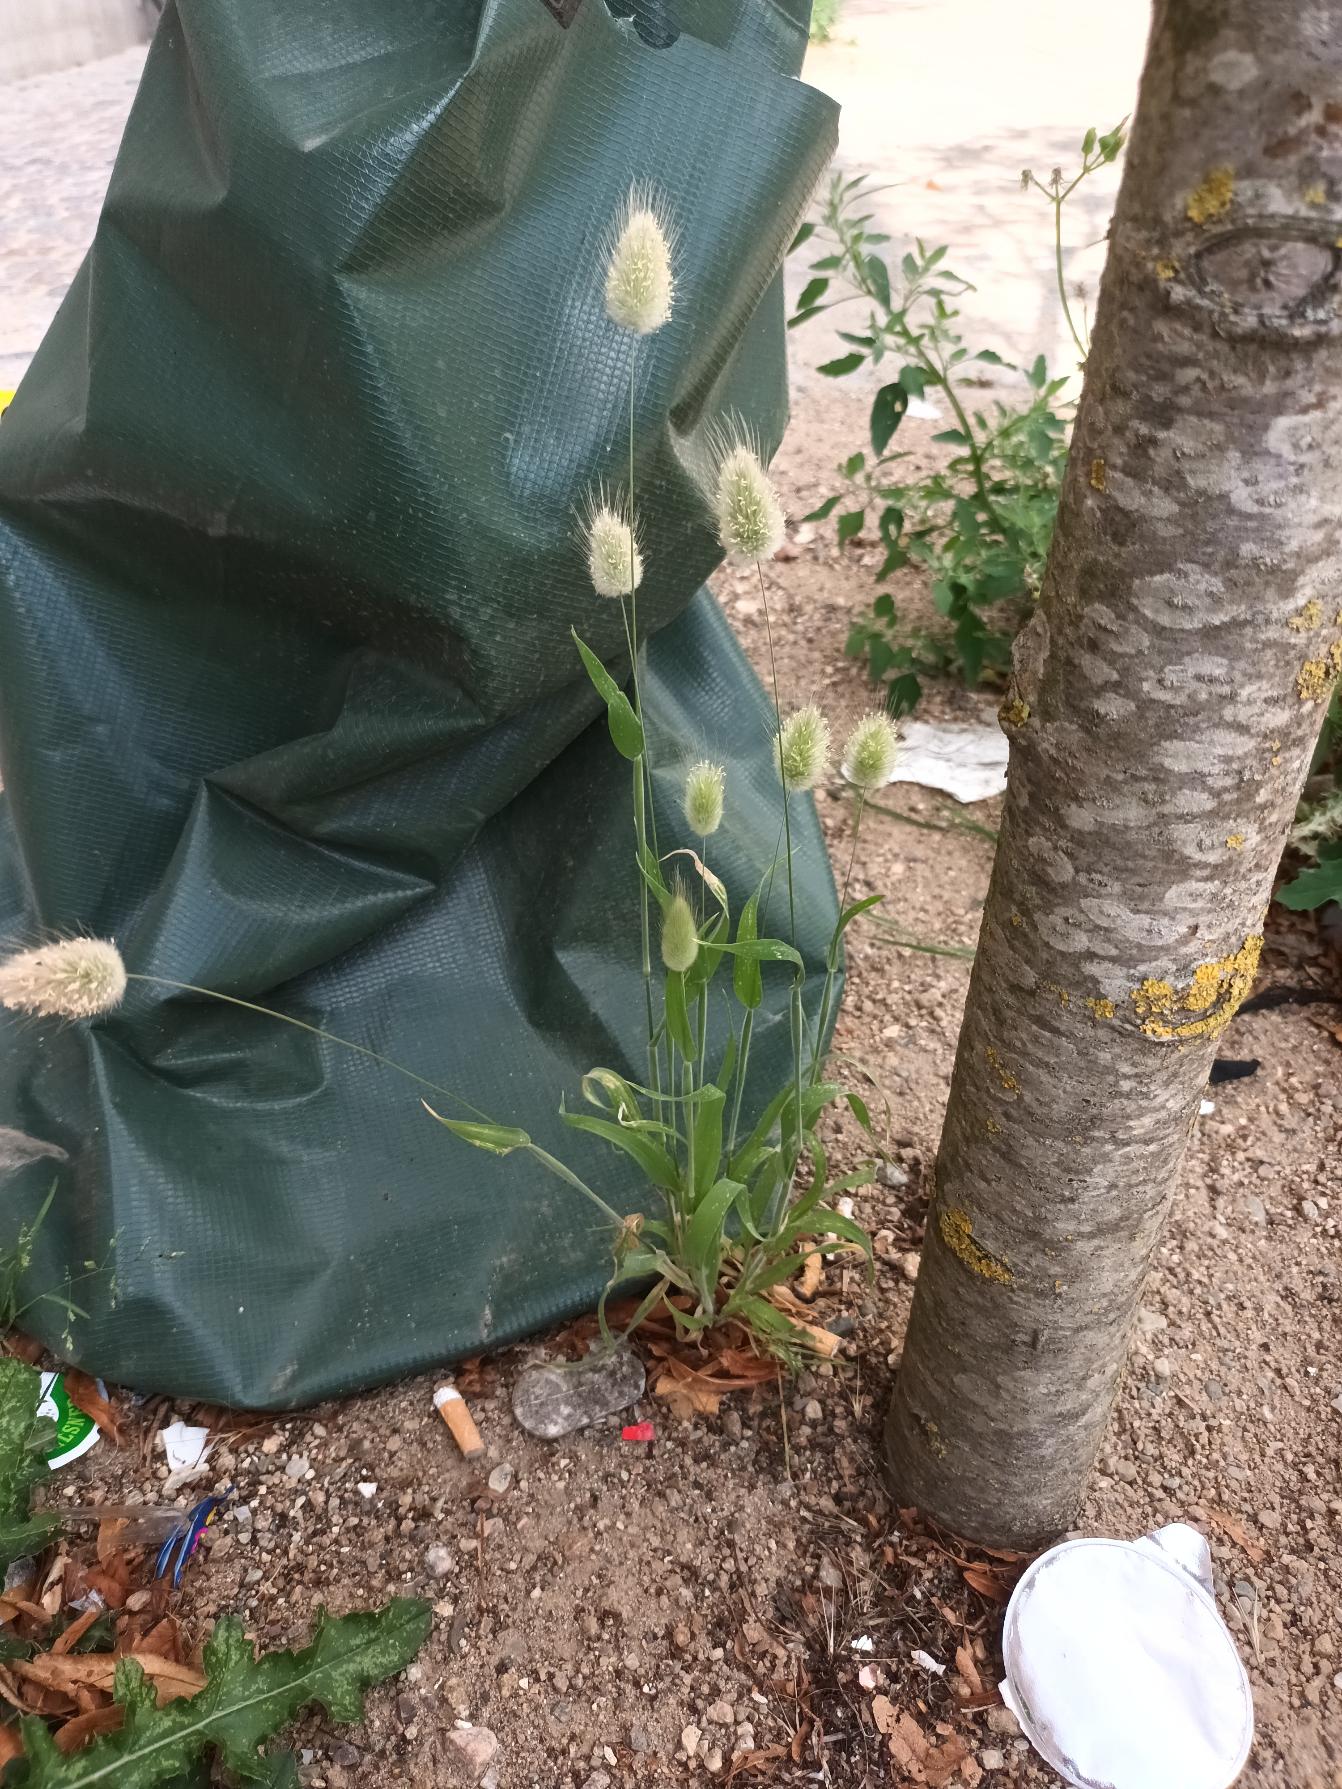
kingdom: Plantae
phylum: Tracheophyta
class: Liliopsida
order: Poales
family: Poaceae
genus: Lagurus
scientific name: Lagurus ovatus
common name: Harehale
